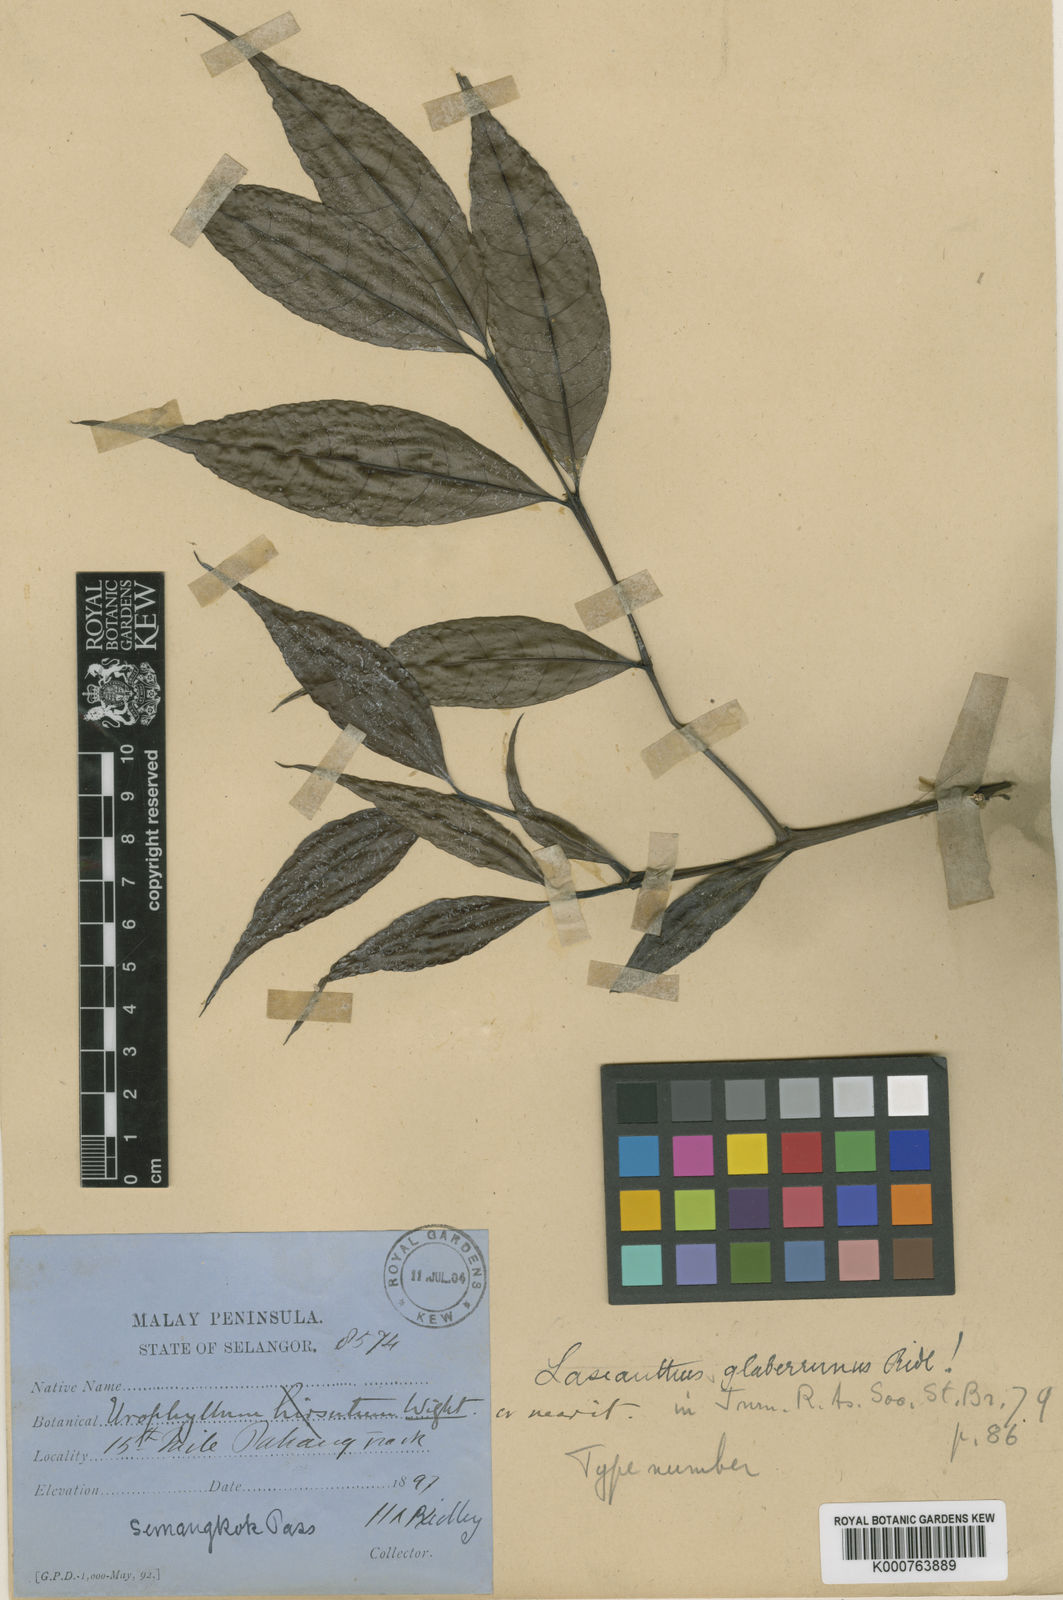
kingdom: Plantae
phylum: Tracheophyta
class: Magnoliopsida
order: Gentianales
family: Rubiaceae
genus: Paralasianthus
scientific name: Paralasianthus lowianus
